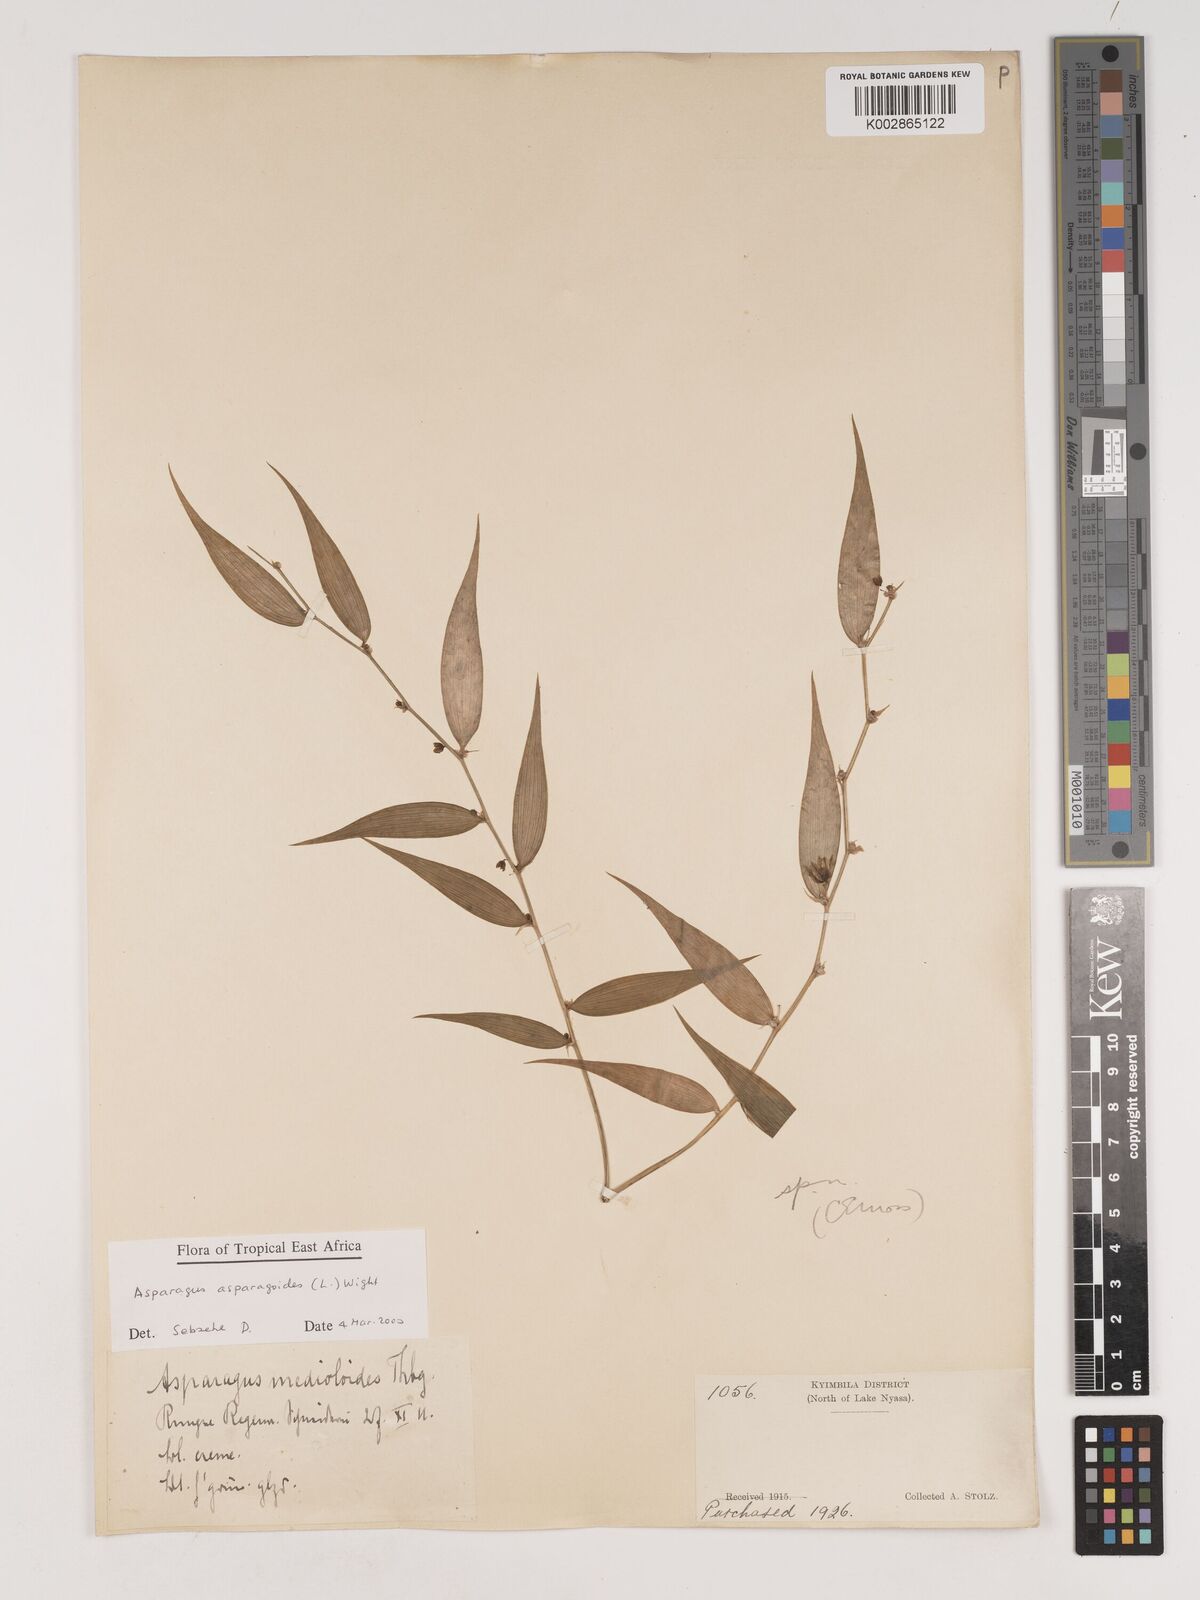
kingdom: Plantae
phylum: Tracheophyta
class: Liliopsida
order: Asparagales
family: Asparagaceae
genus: Asparagus
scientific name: Asparagus asparagoides
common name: African asparagus fern
